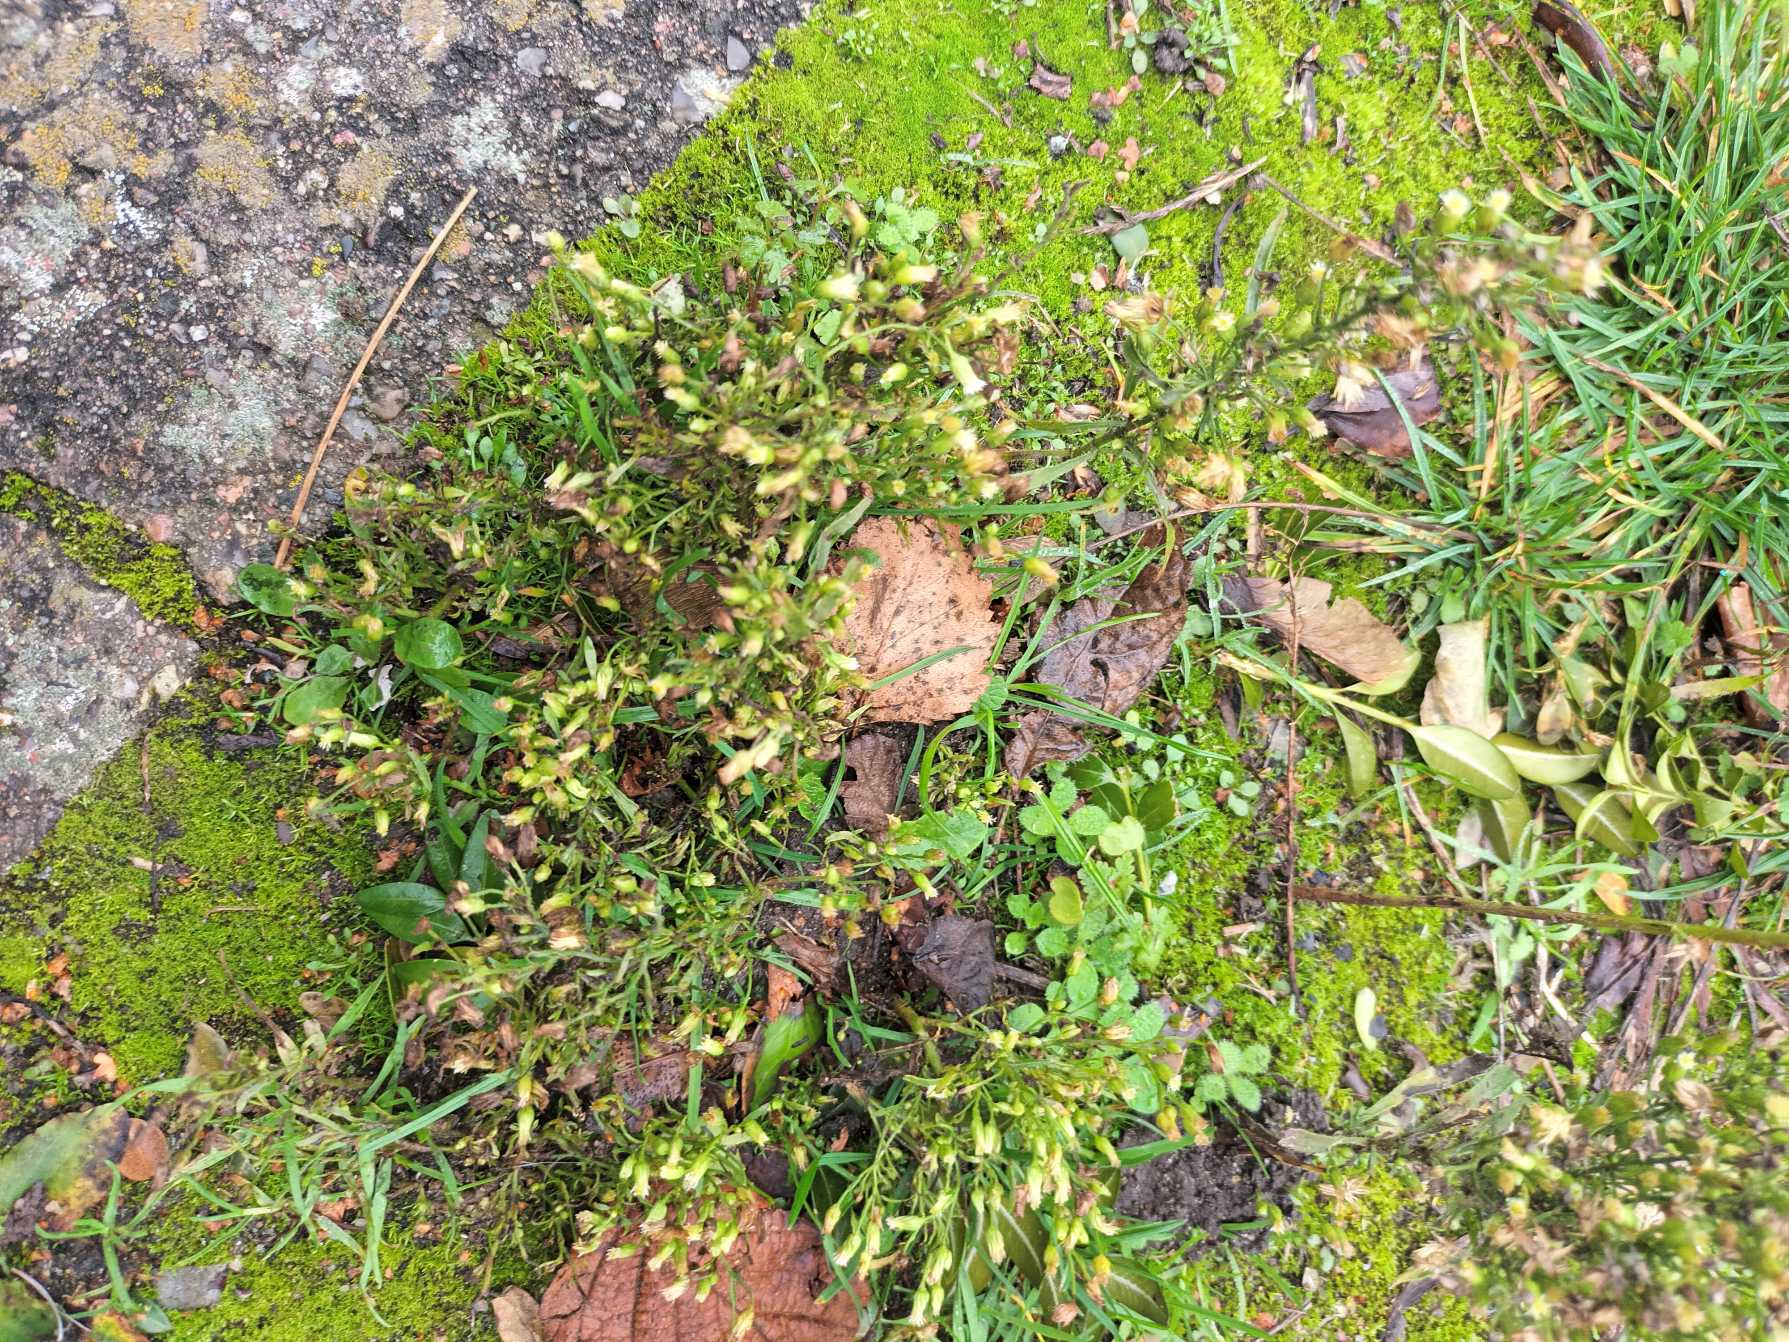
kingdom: Plantae
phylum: Tracheophyta
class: Magnoliopsida
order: Asterales
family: Asteraceae
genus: Erigeron
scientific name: Erigeron canadensis
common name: Kanadisk bakkestjerne
